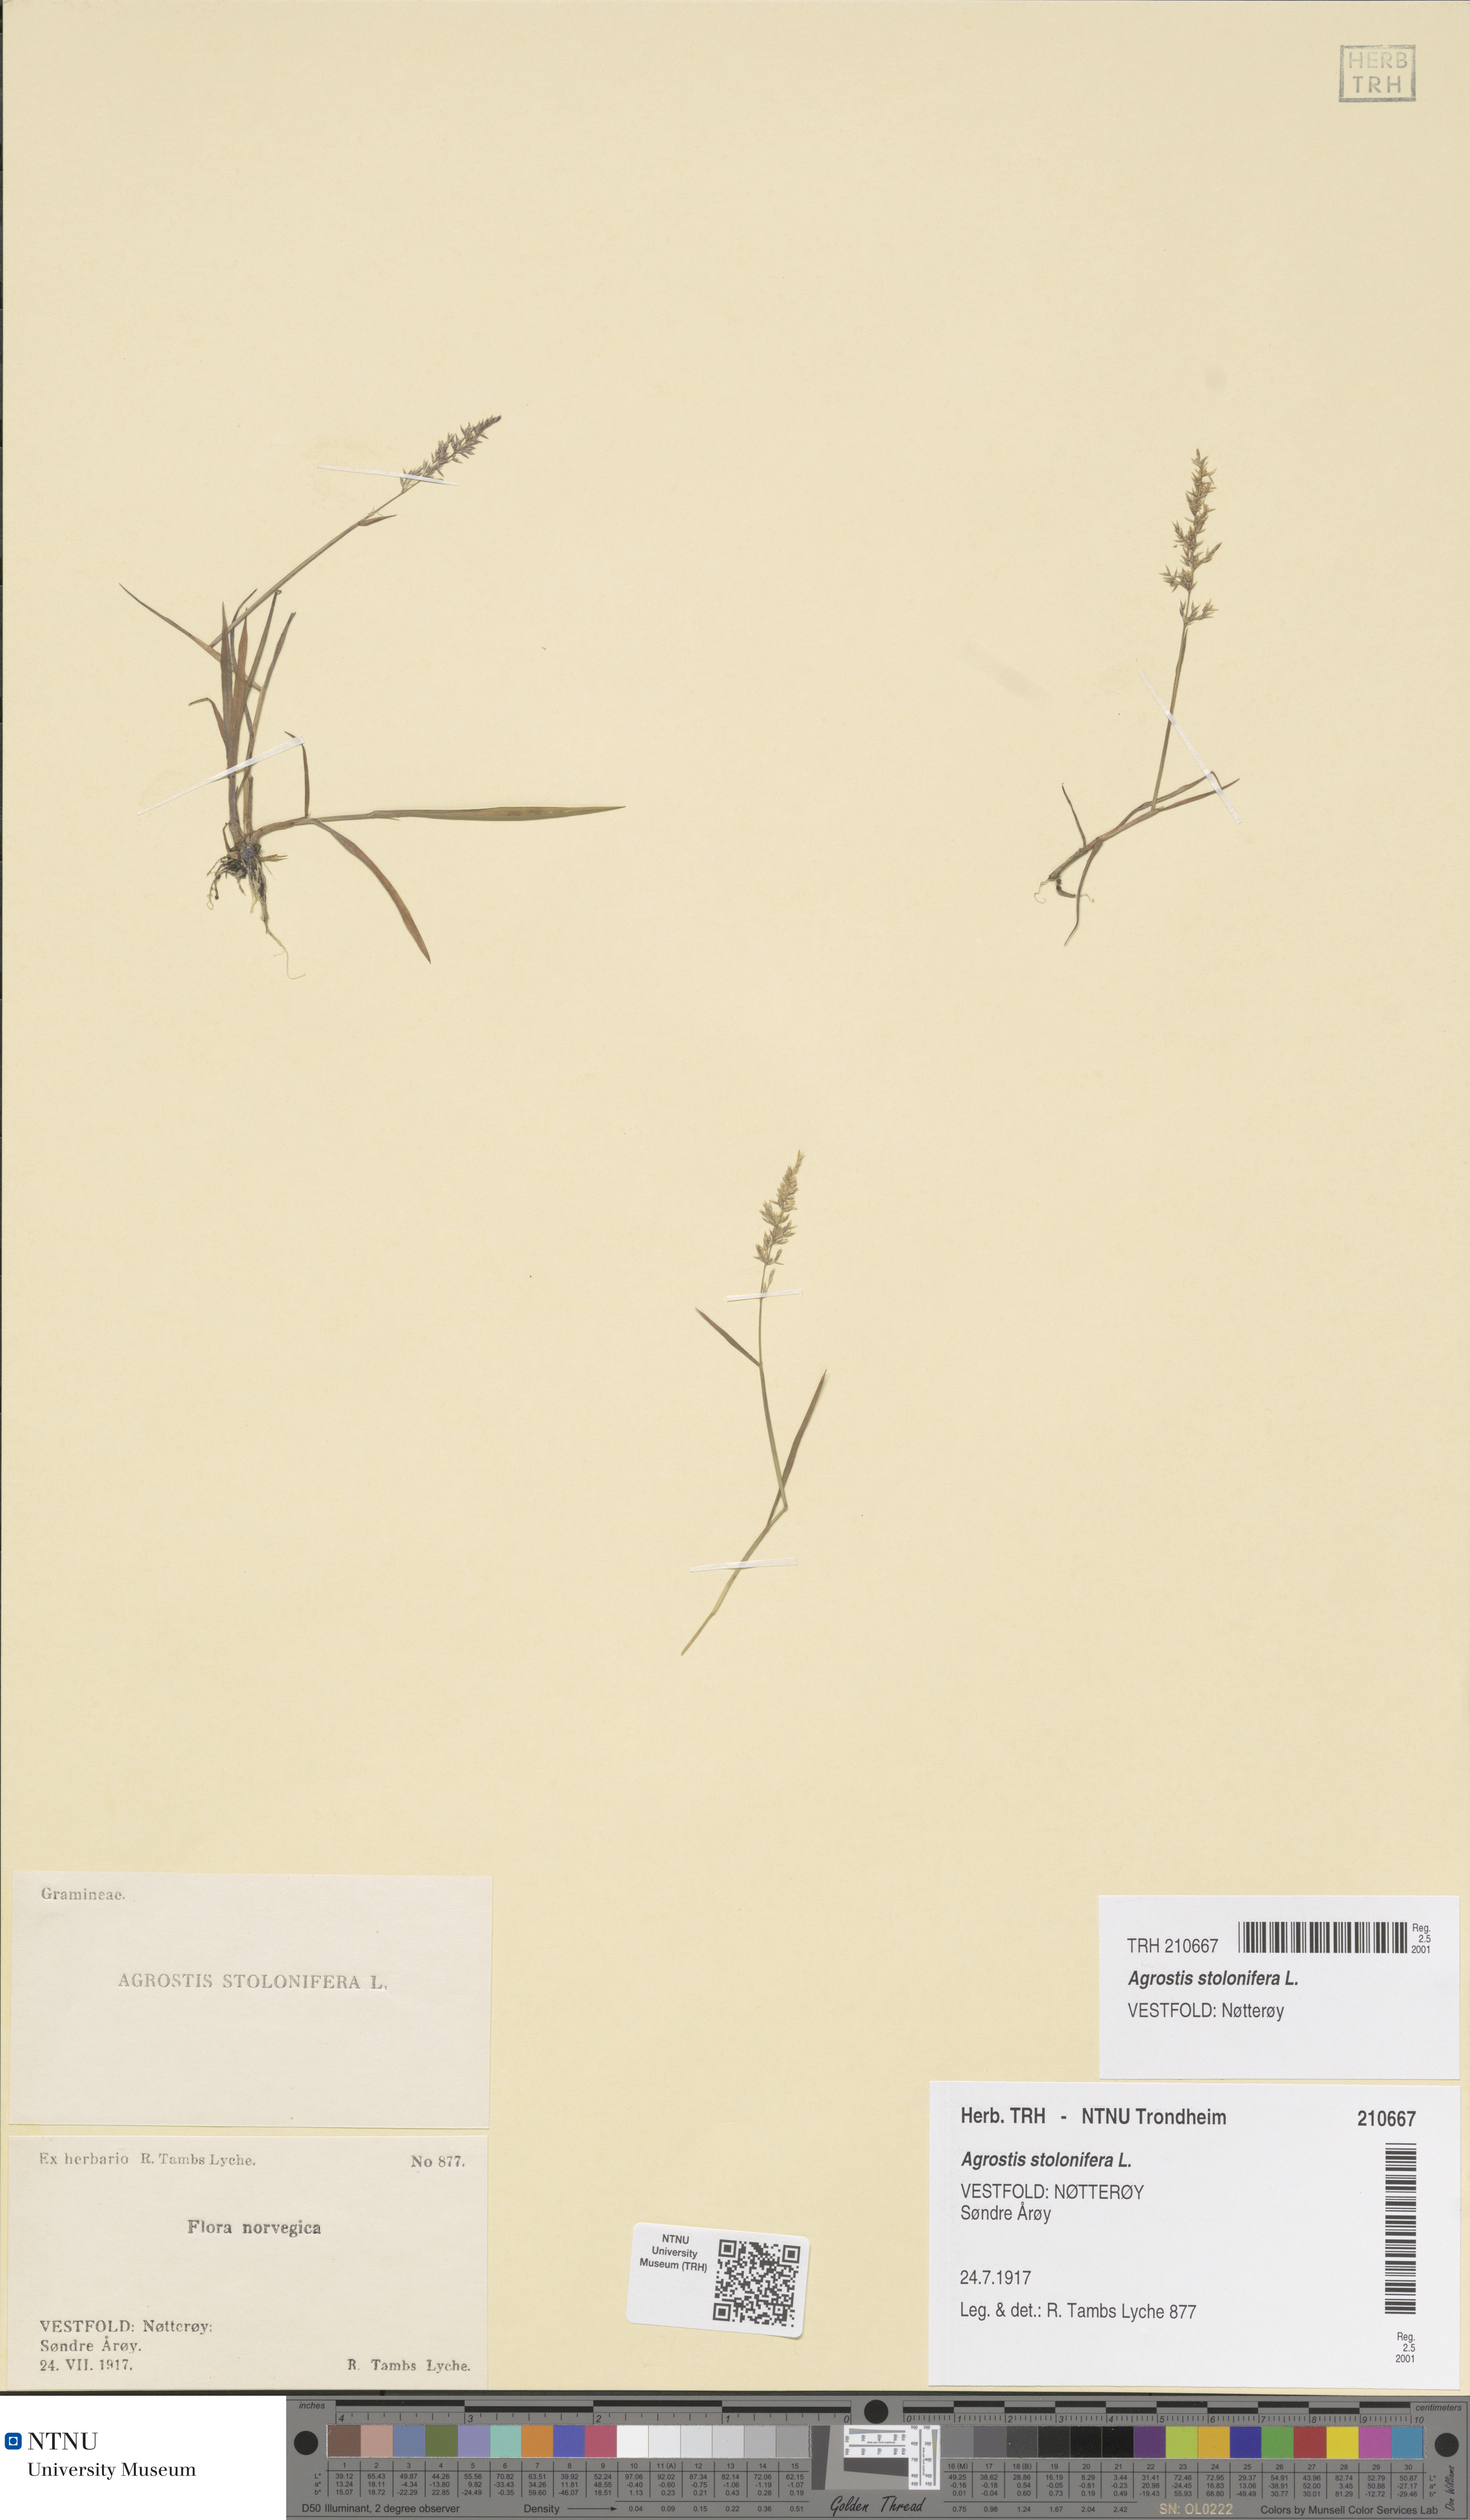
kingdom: Plantae
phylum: Tracheophyta
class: Liliopsida
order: Poales
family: Poaceae
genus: Agrostis
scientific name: Agrostis stolonifera
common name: Creeping bentgrass
